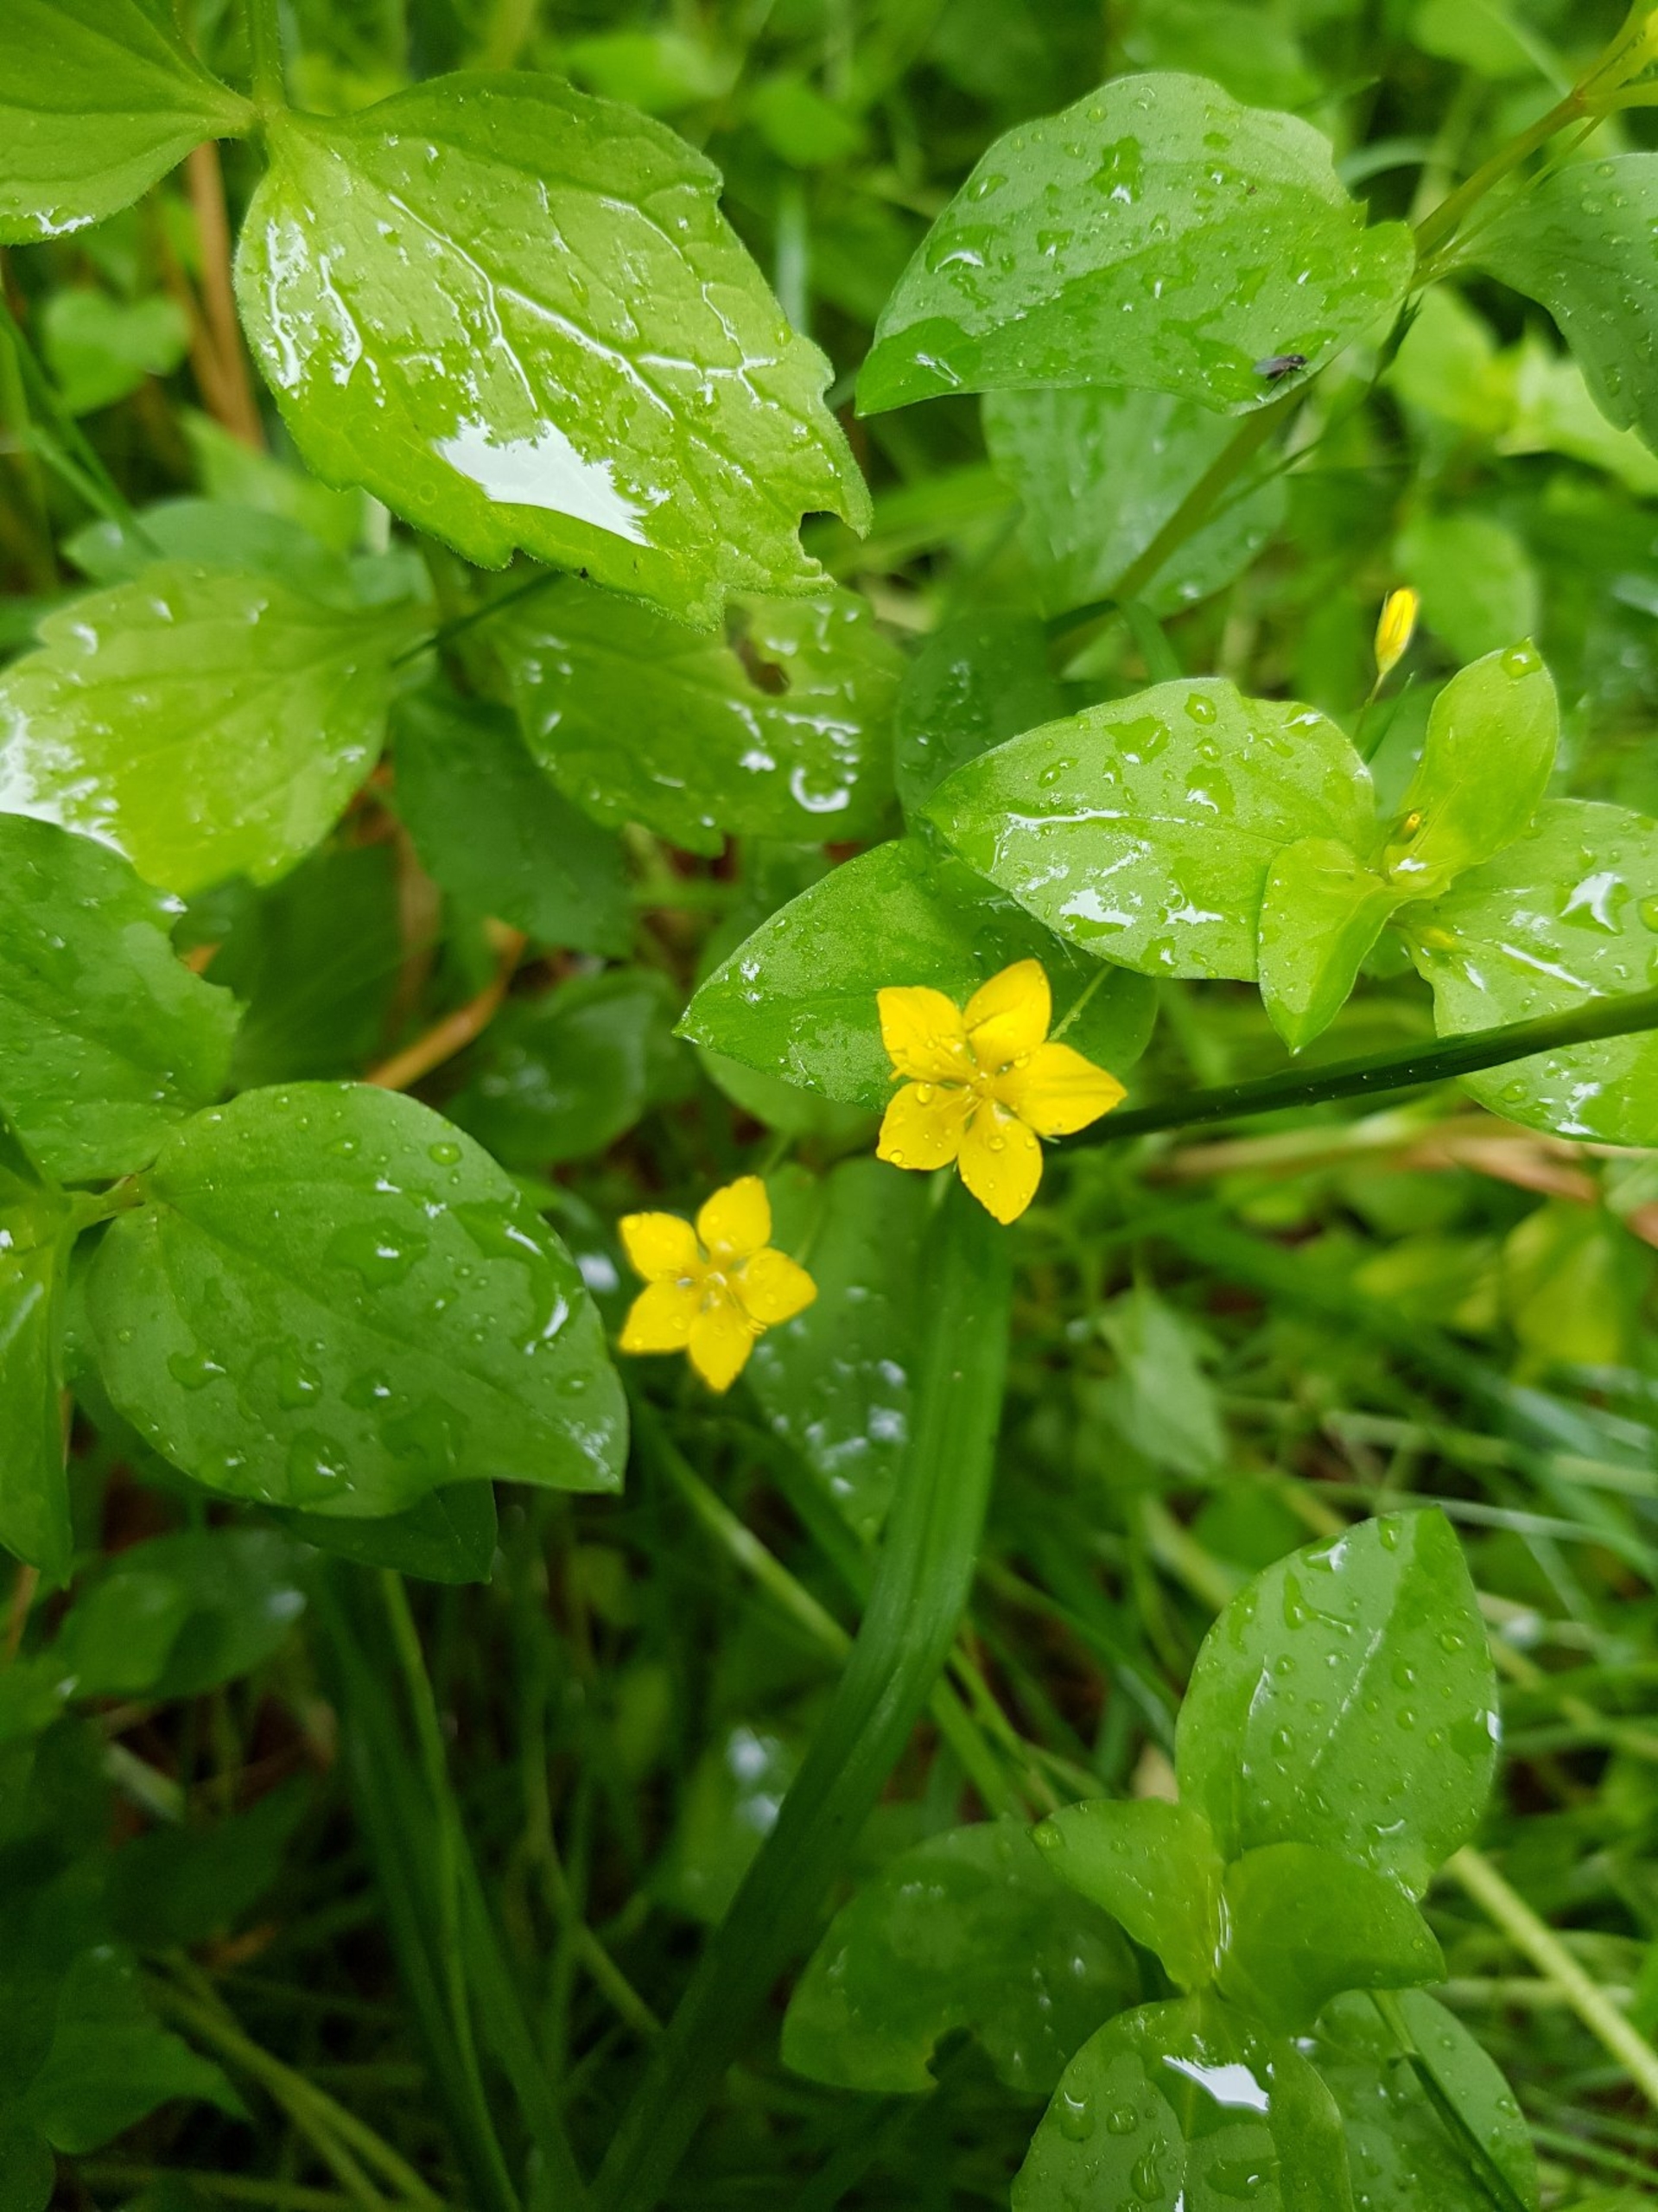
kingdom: Plantae
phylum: Tracheophyta
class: Magnoliopsida
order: Ericales
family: Primulaceae
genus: Lysimachia
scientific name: Lysimachia nemorum
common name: Lund-fredløs
